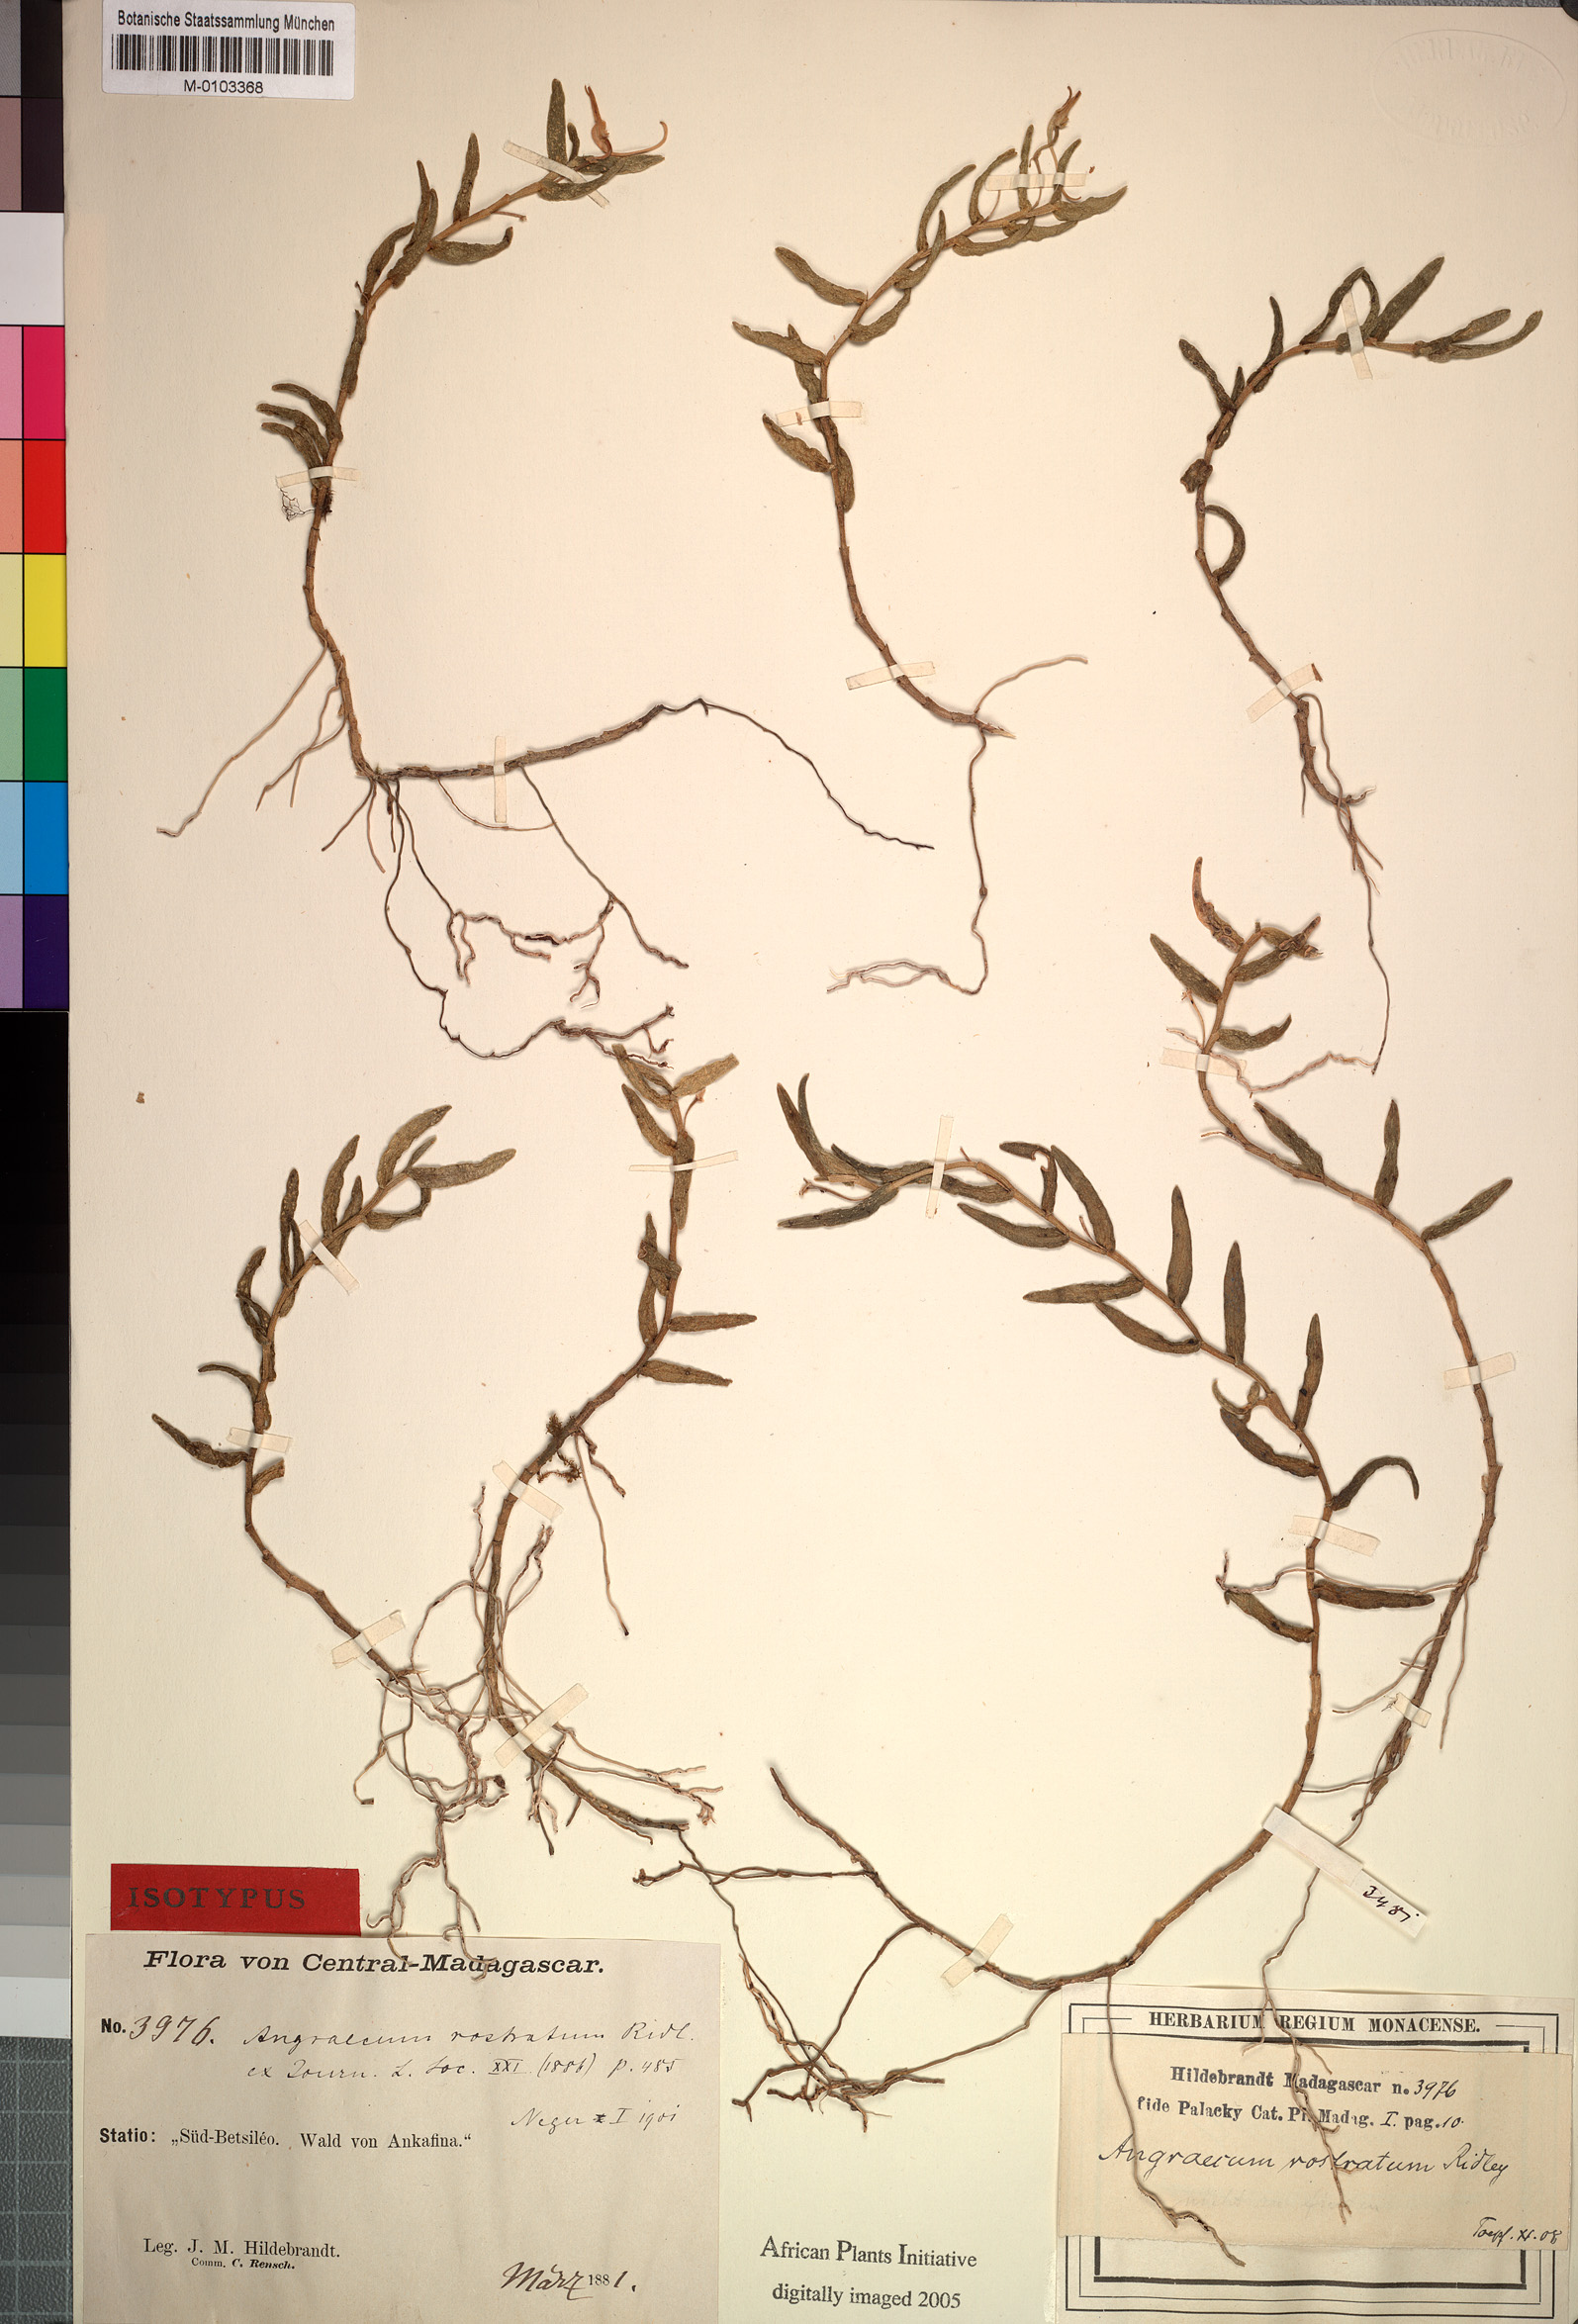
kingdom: Plantae
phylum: Tracheophyta
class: Liliopsida
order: Asparagales
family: Orchidaceae
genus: Angraecum
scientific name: Angraecum rostratum
